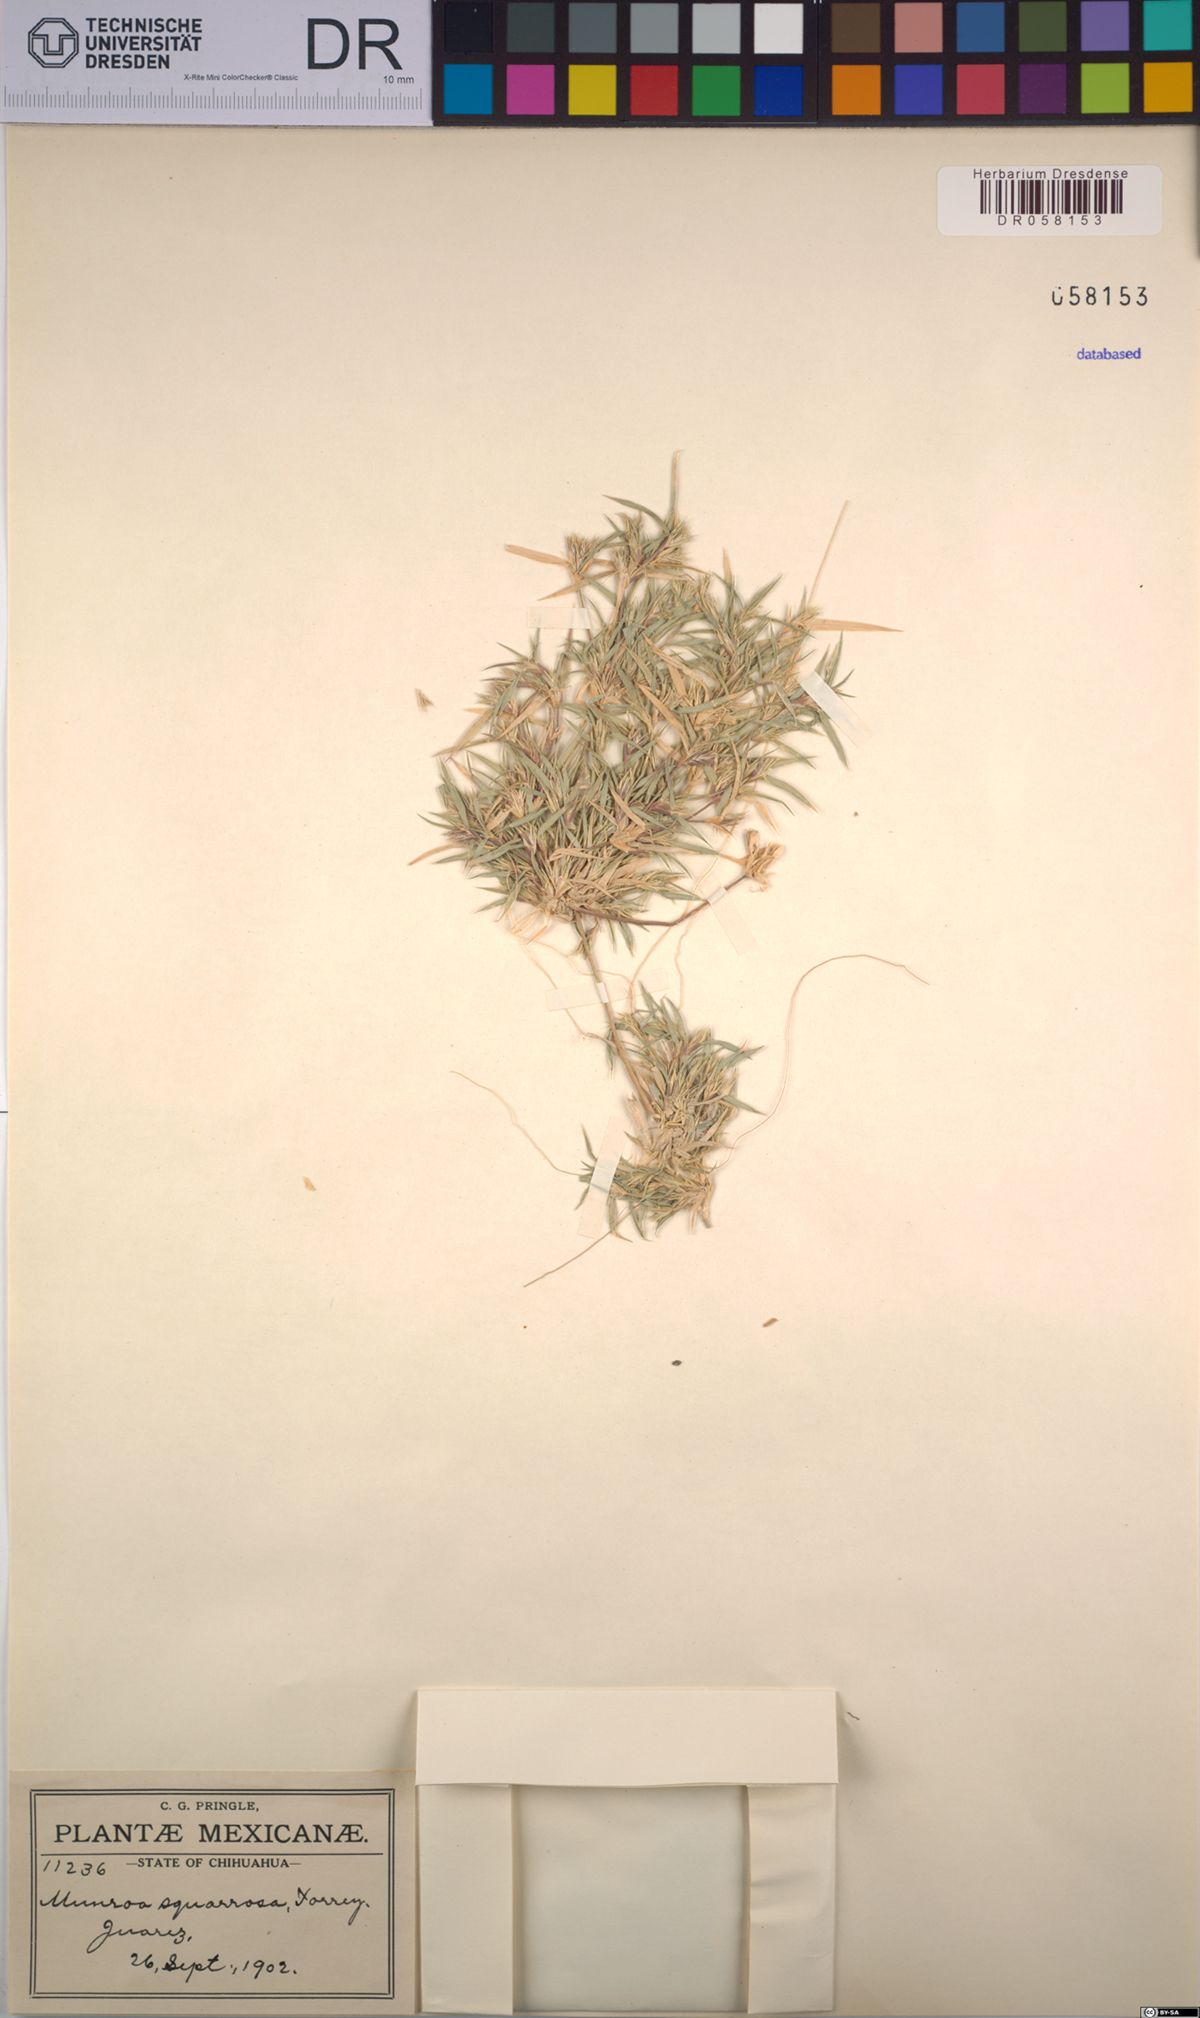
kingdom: Plantae
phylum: Tracheophyta
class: Liliopsida
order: Poales
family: Poaceae
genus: Munroa
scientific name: Munroa squarrosa
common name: False buffalo grass
